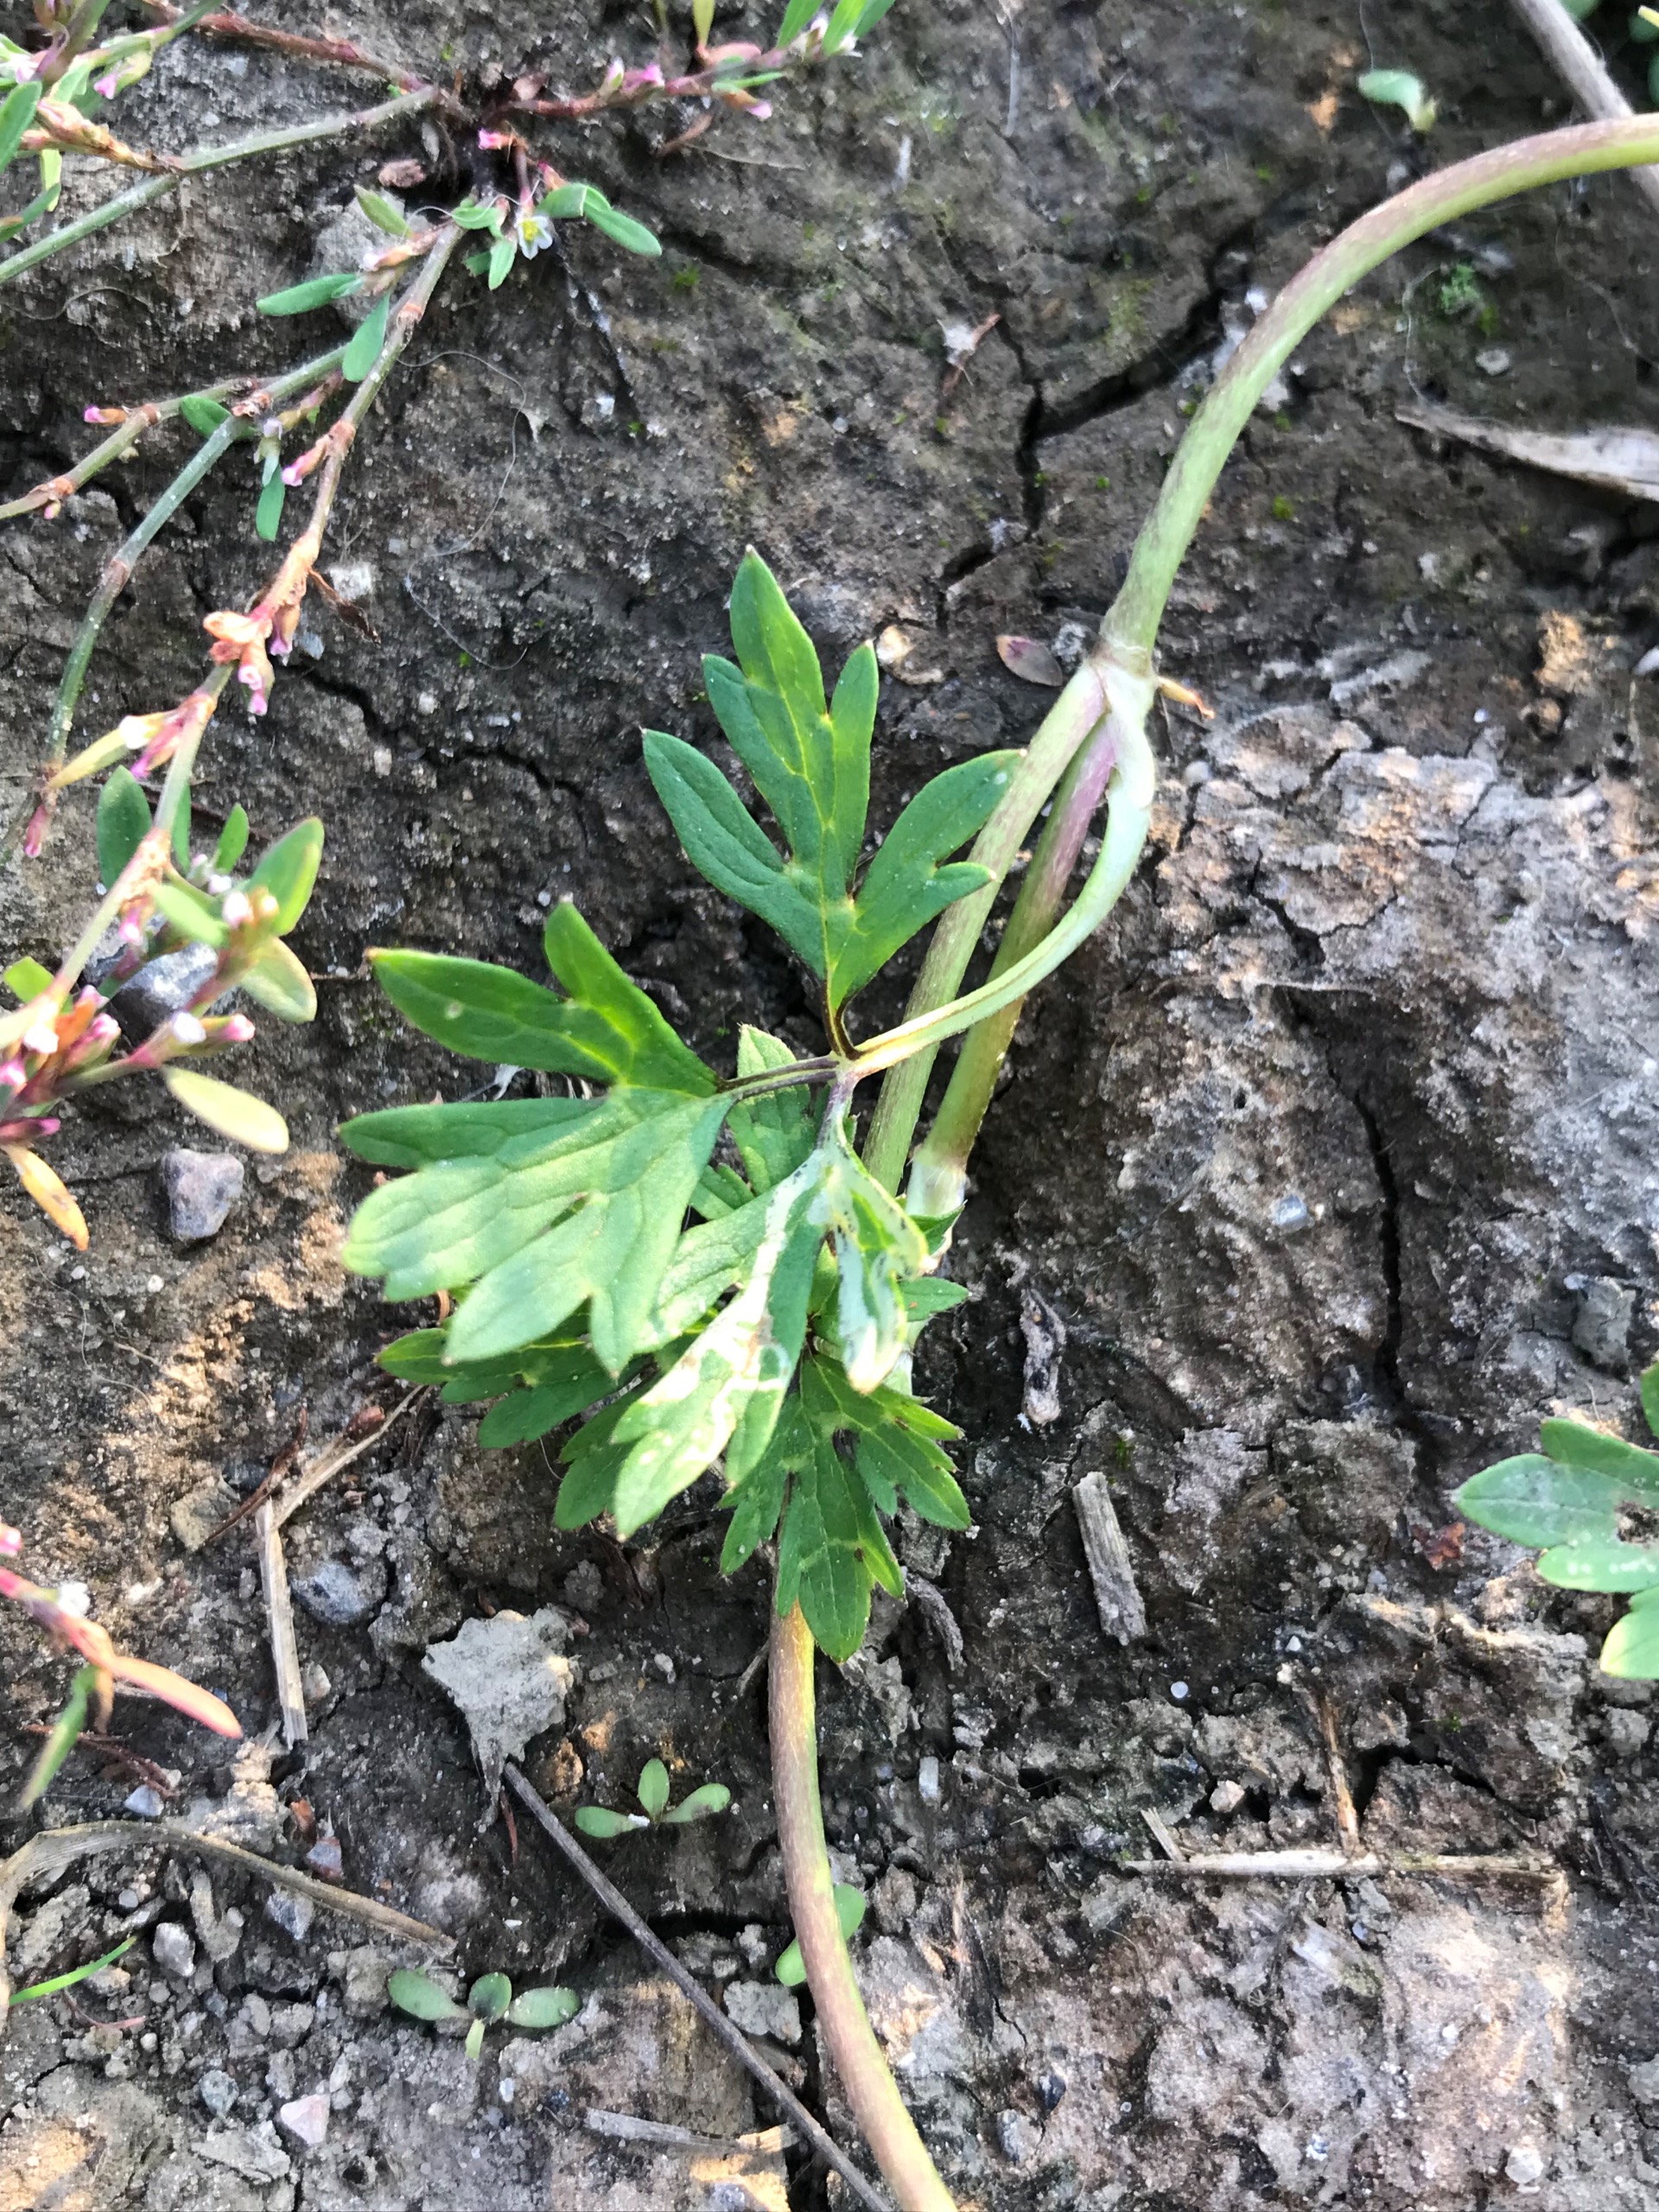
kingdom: Plantae
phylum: Tracheophyta
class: Magnoliopsida
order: Ranunculales
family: Ranunculaceae
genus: Ranunculus
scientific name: Ranunculus repens
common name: Lav ranunkel
